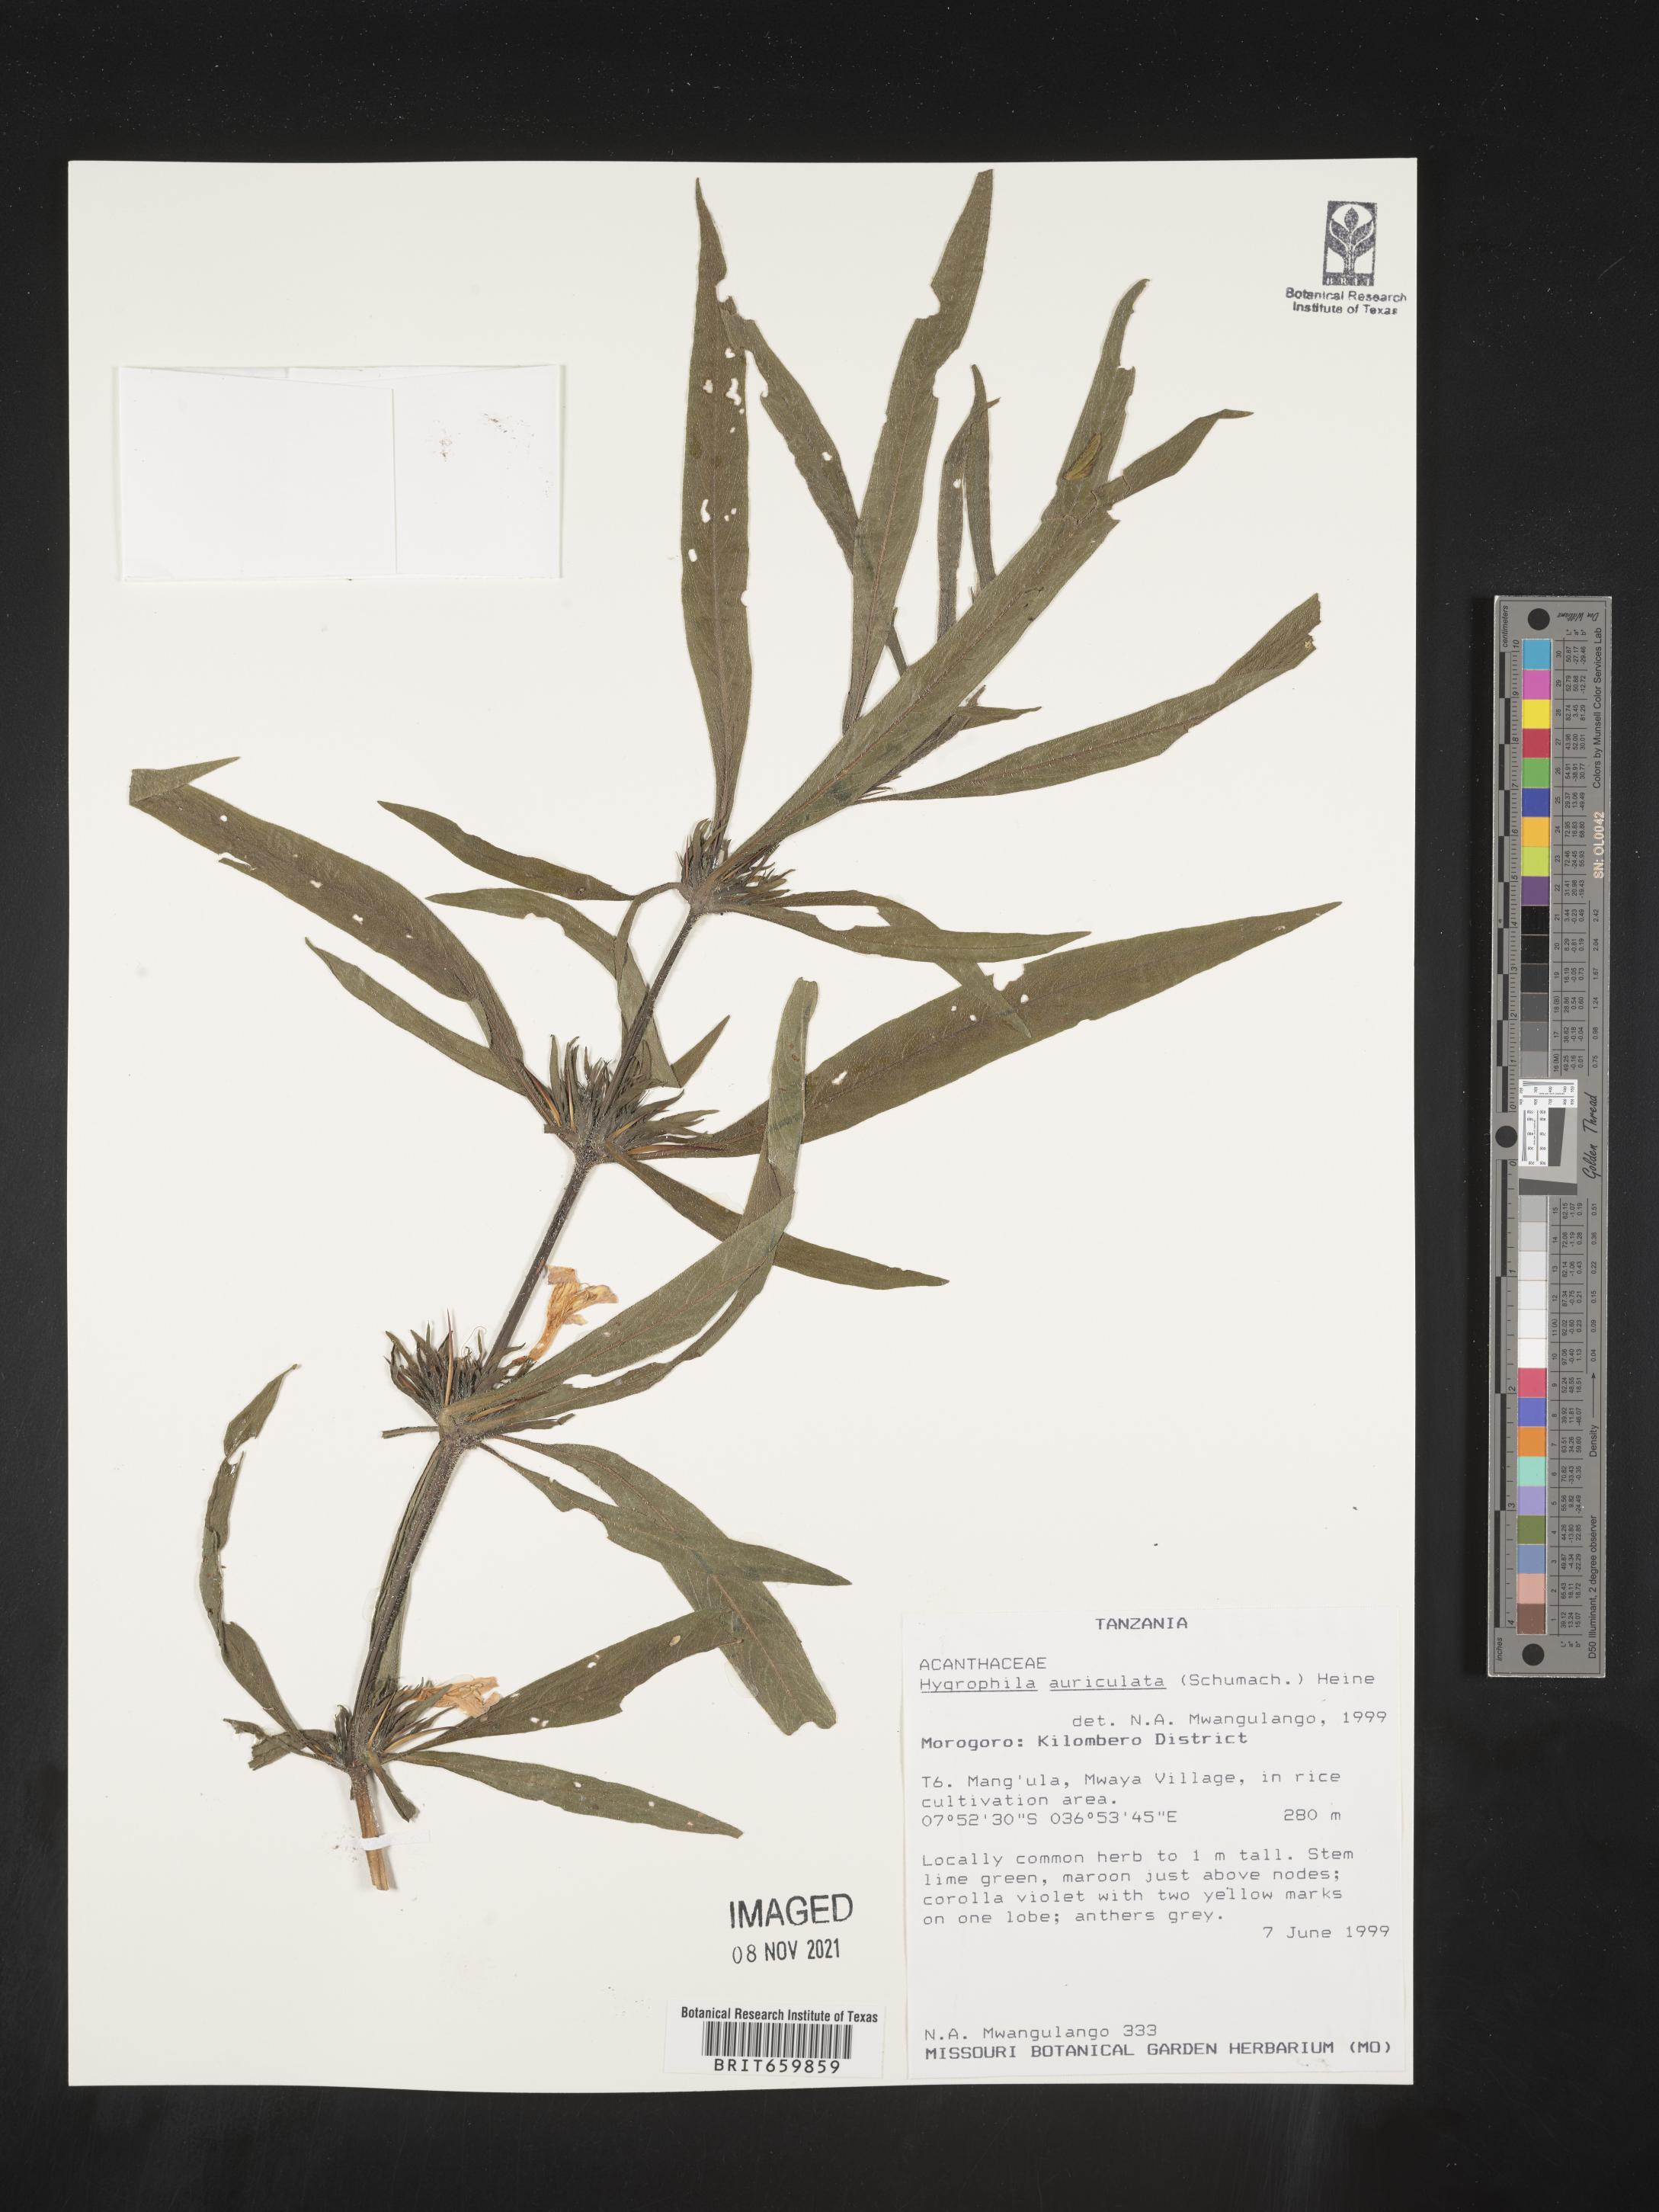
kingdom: Plantae
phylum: Tracheophyta
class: Magnoliopsida
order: Lamiales
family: Acanthaceae
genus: Hygrophila
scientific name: Hygrophila
